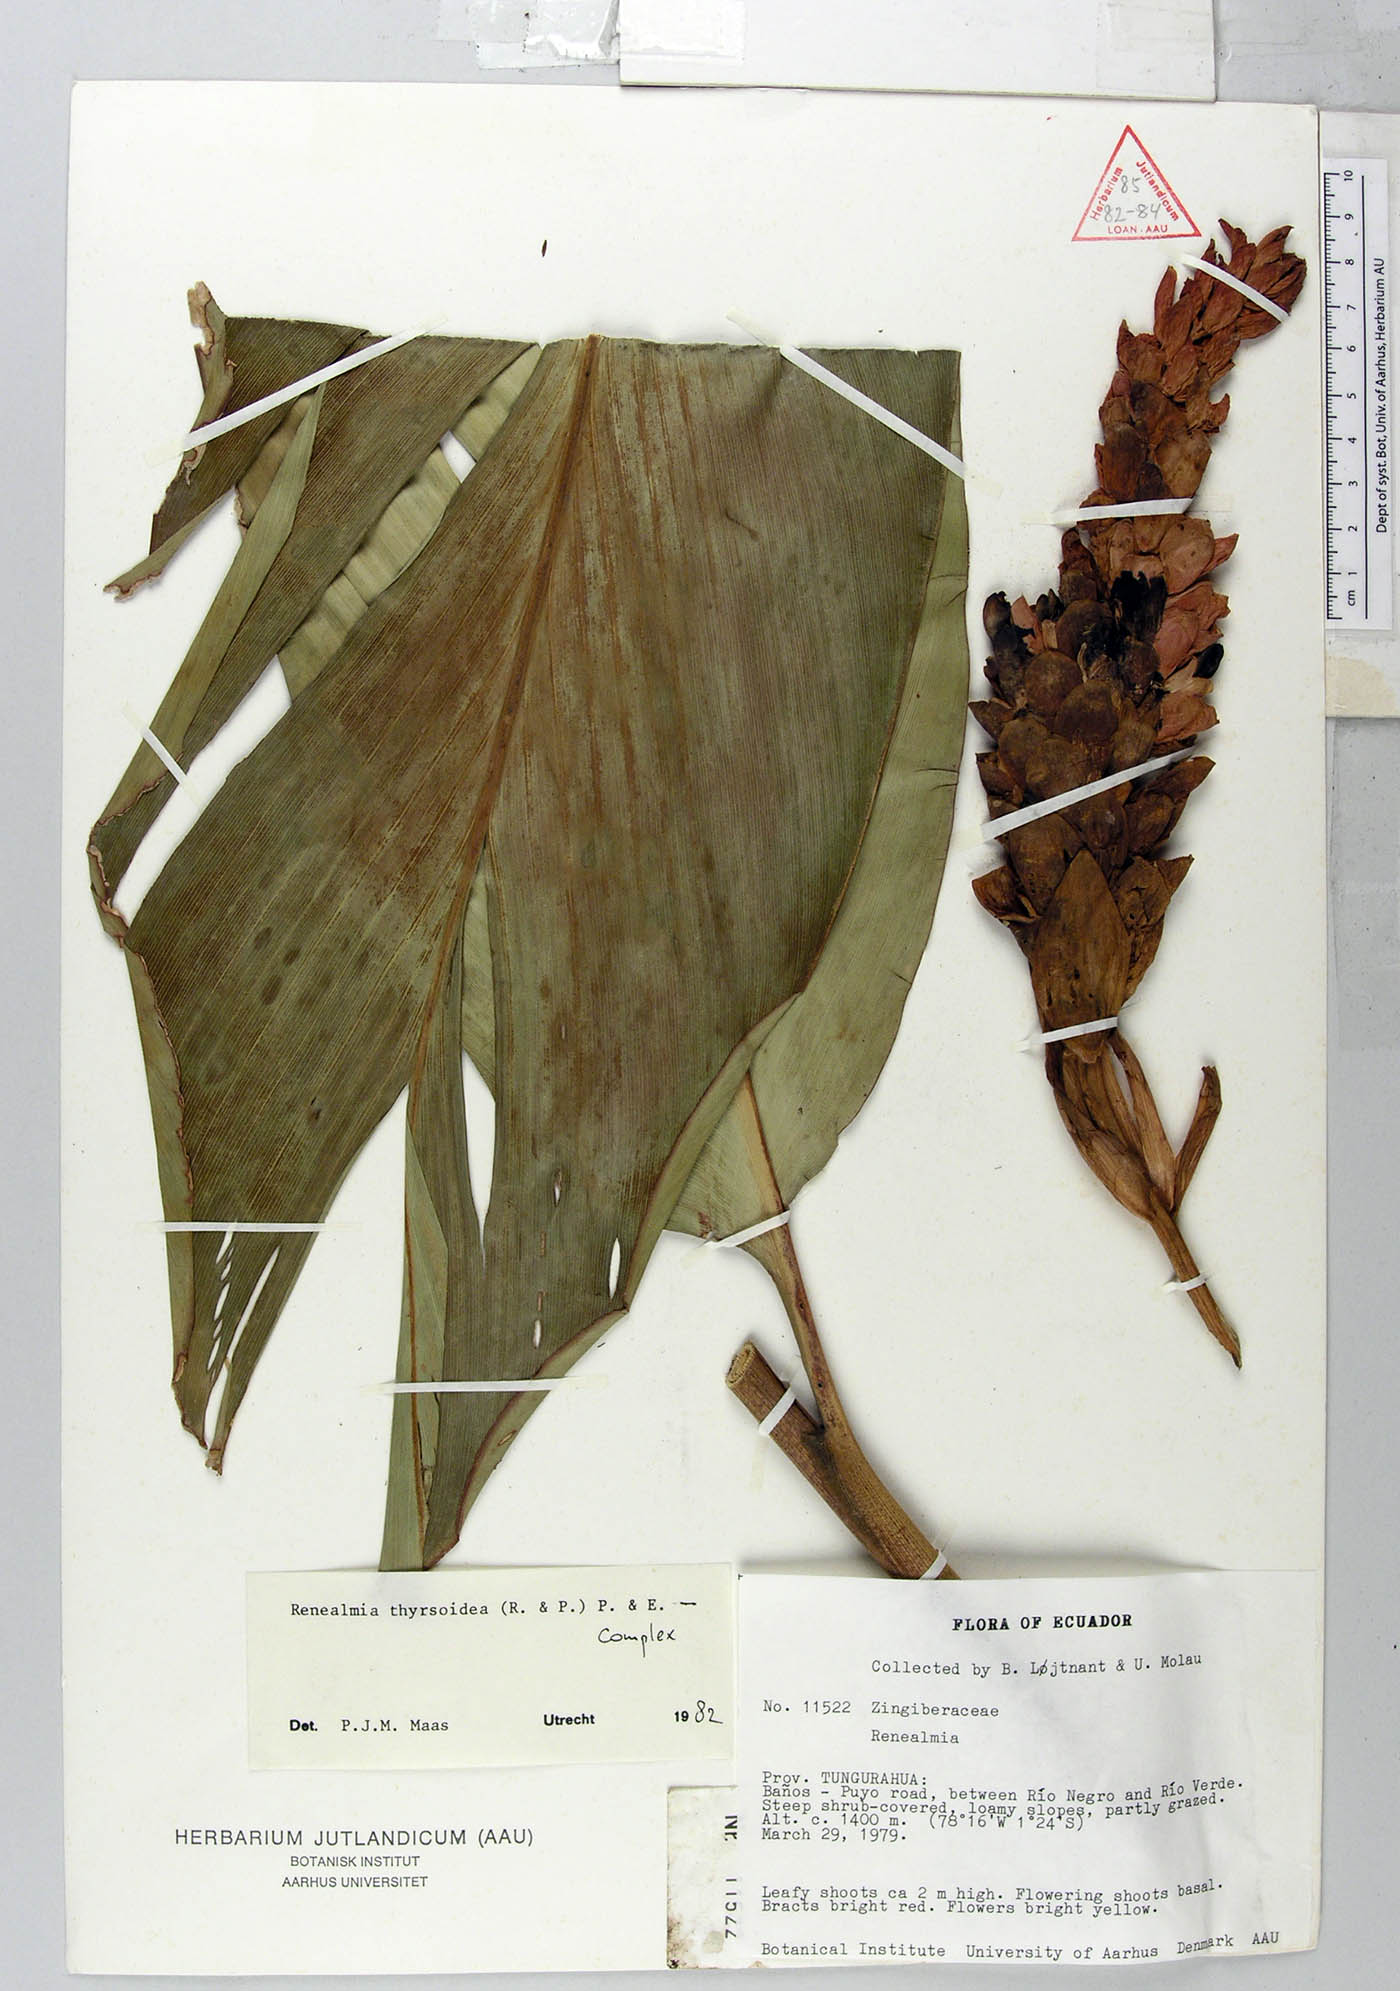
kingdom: Plantae
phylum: Tracheophyta
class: Liliopsida
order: Zingiberales
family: Zingiberaceae
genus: Renealmia
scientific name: Renealmia thyrsoidea
